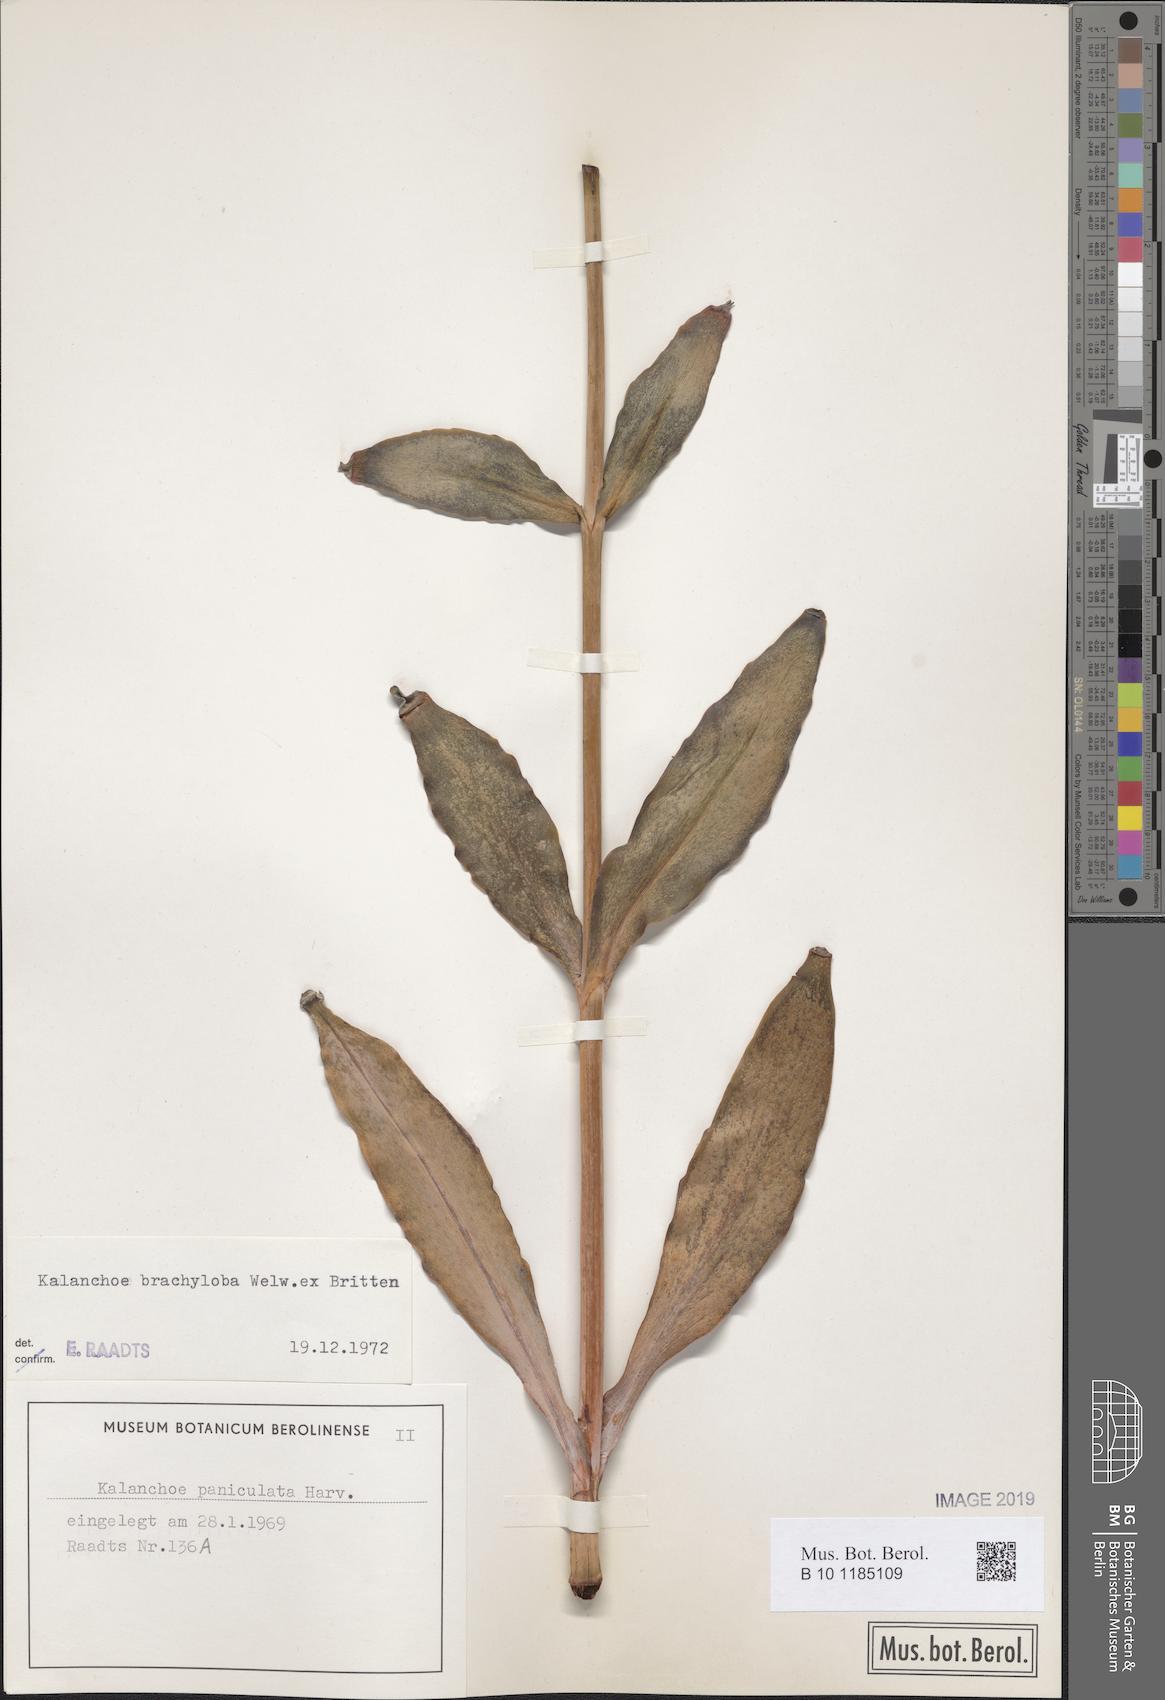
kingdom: Plantae
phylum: Tracheophyta
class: Magnoliopsida
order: Saxifragales
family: Crassulaceae
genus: Kalanchoe
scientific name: Kalanchoe brachyloba
